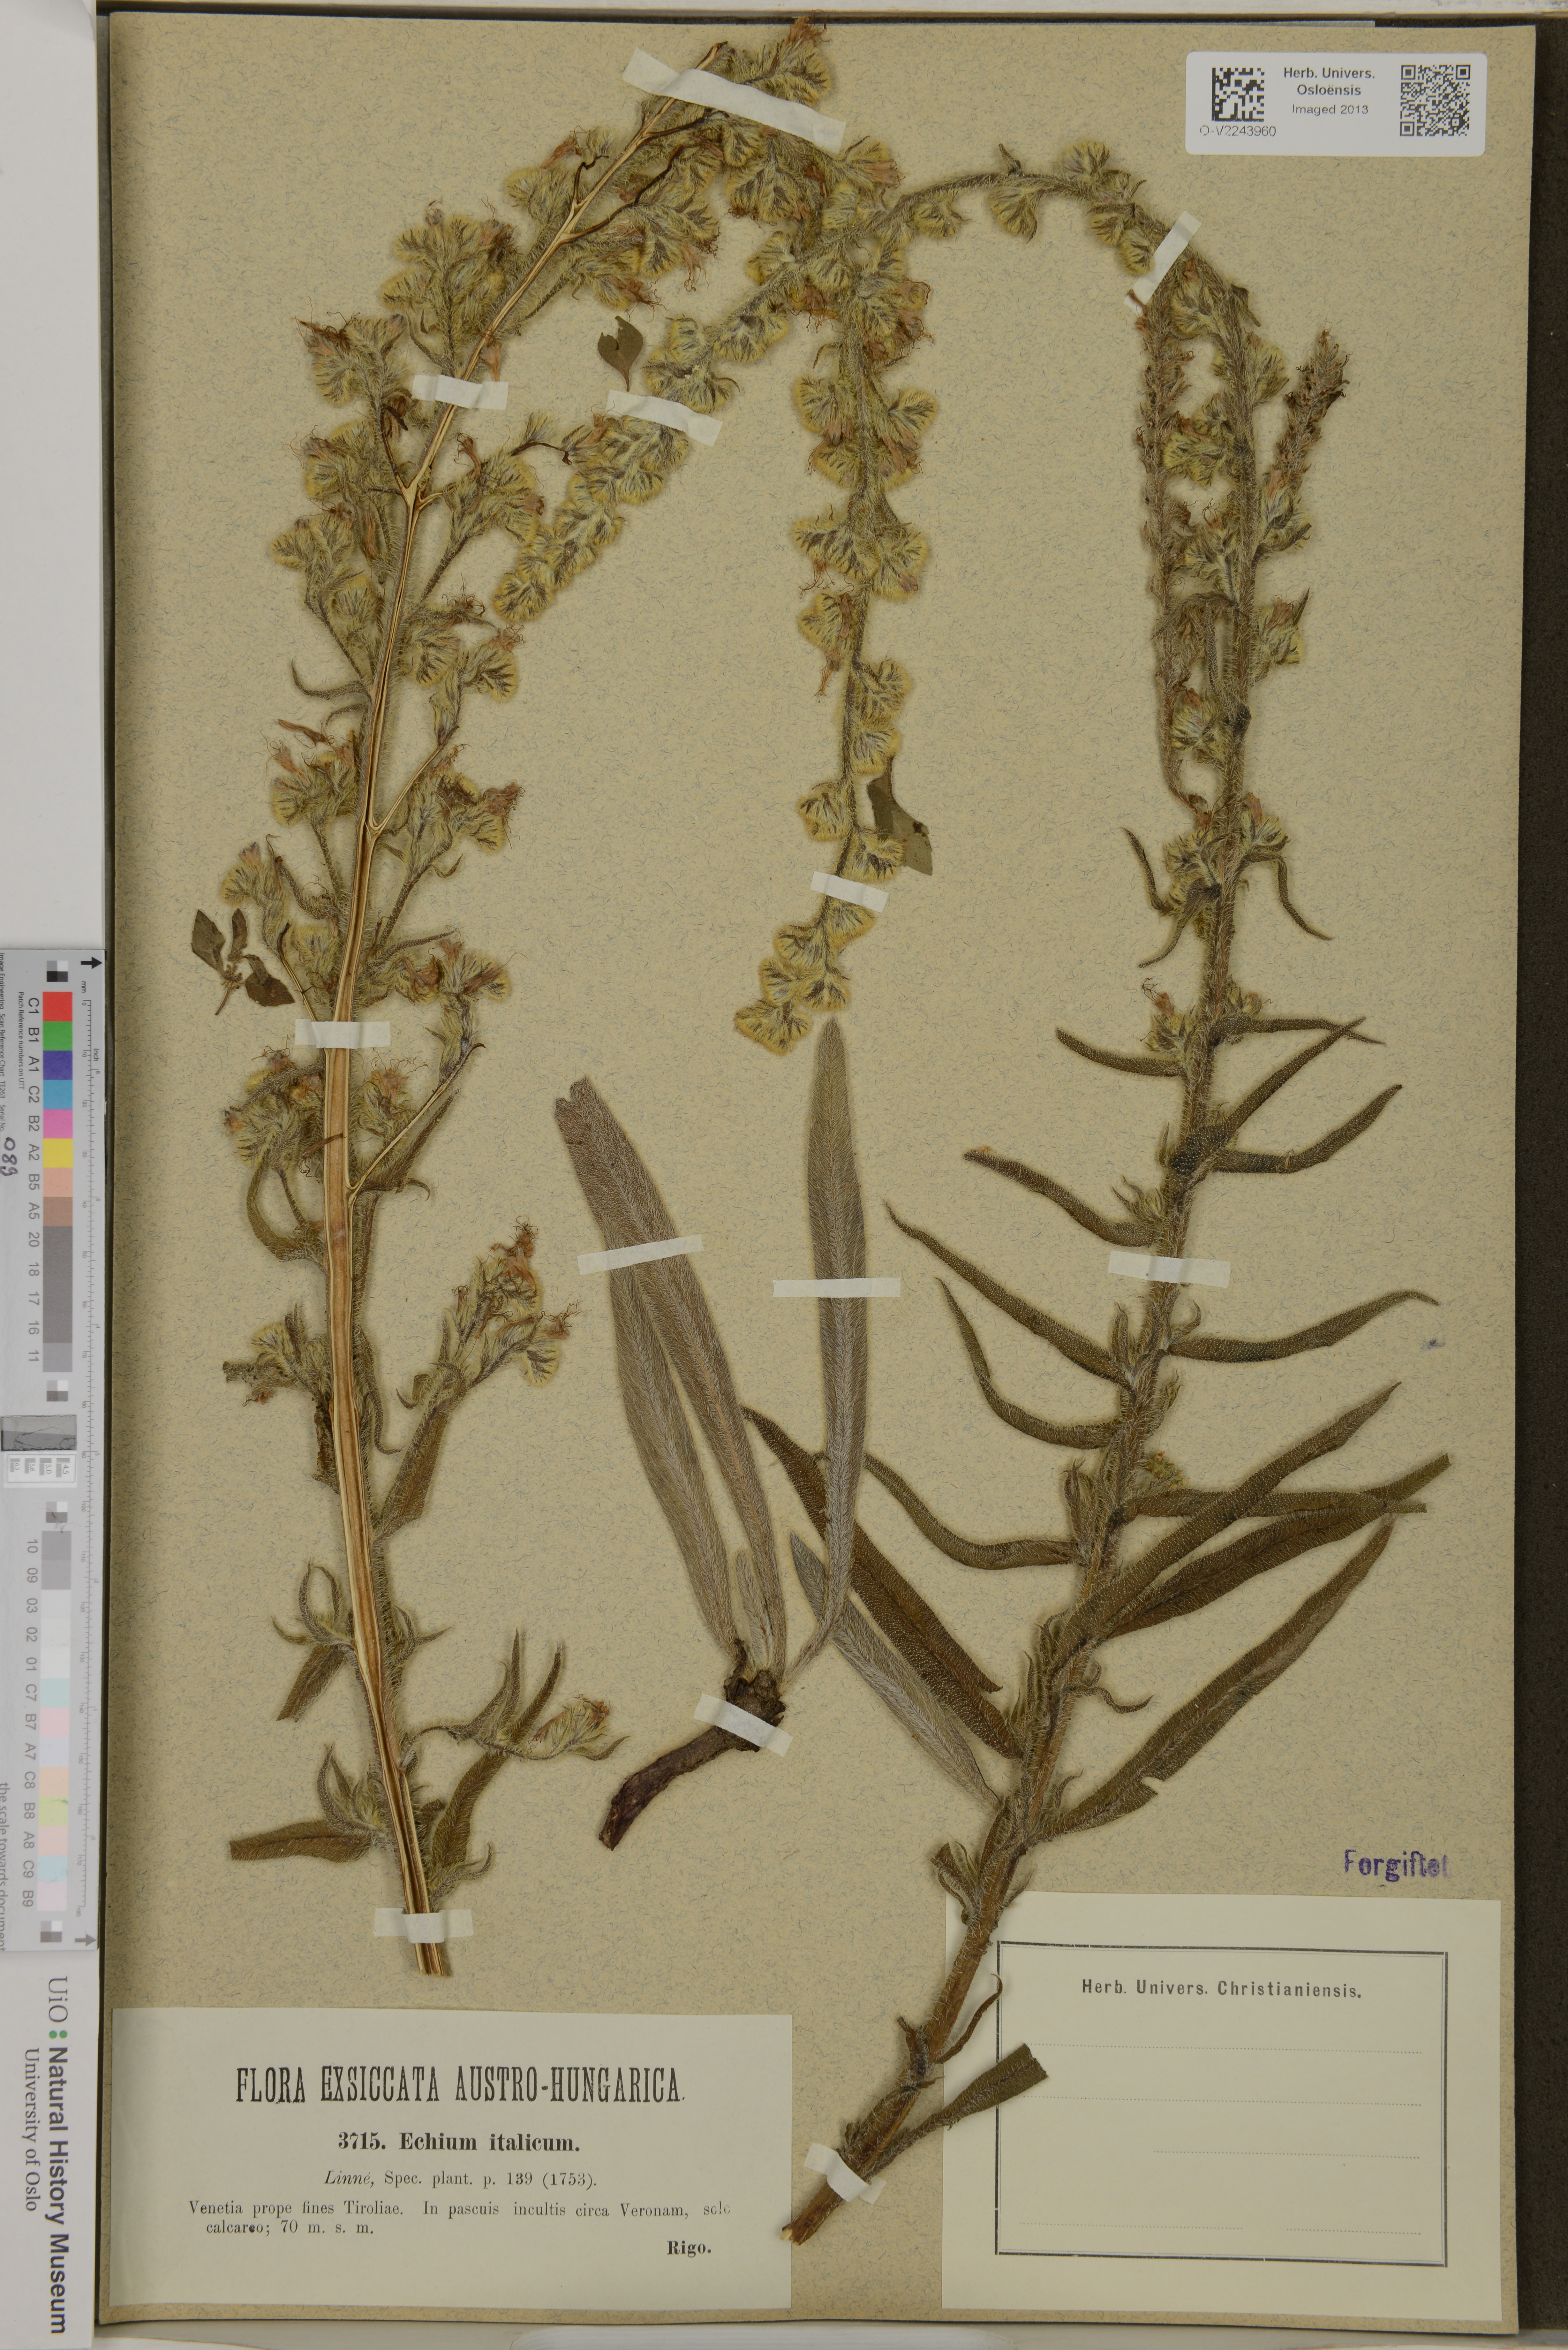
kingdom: Plantae
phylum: Tracheophyta
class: Magnoliopsida
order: Boraginales
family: Boraginaceae
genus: Echium
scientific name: Echium italicum
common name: Italian viper's bugloss
